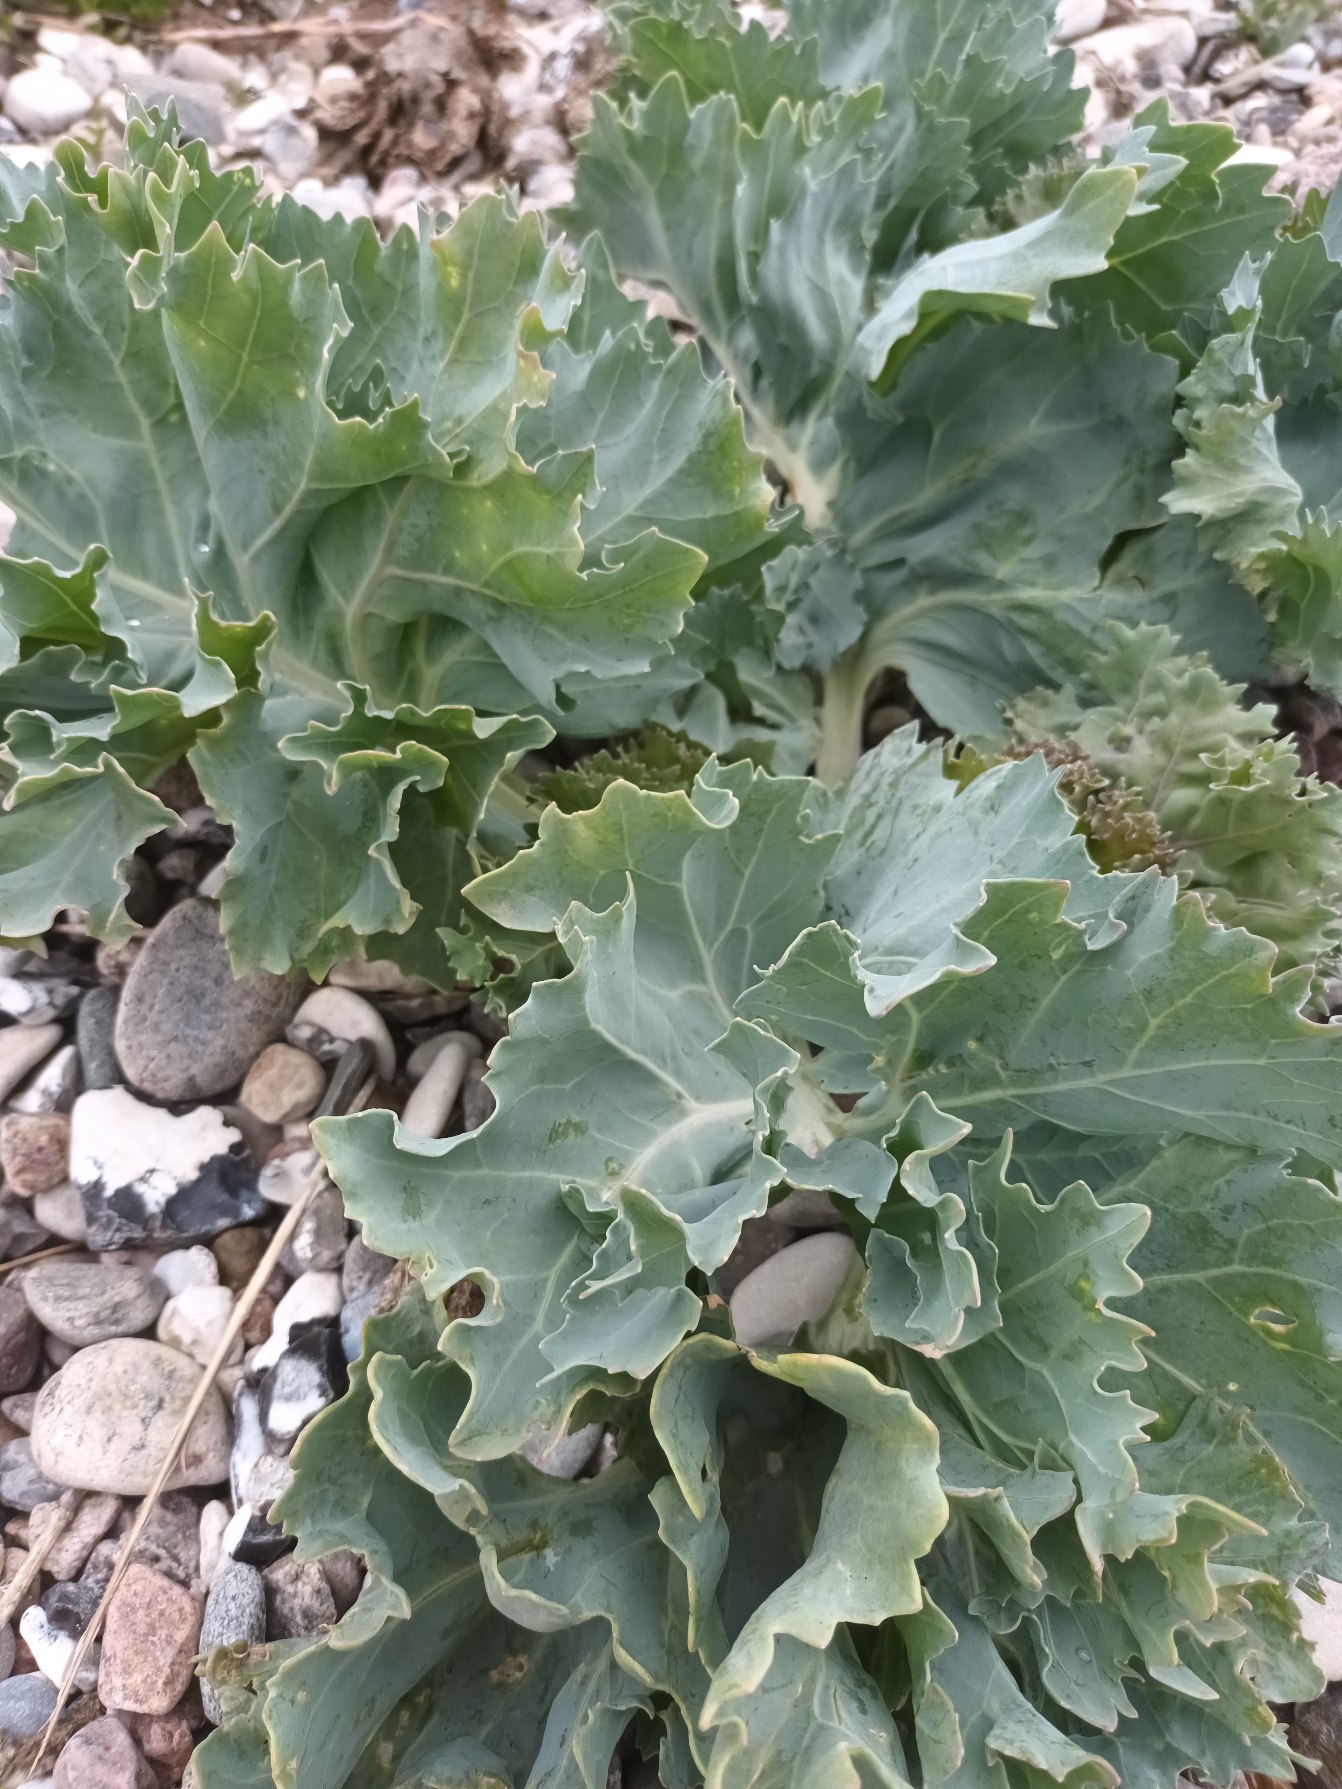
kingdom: Plantae
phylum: Tracheophyta
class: Magnoliopsida
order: Brassicales
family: Brassicaceae
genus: Crambe
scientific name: Crambe maritima
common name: Strandkål
